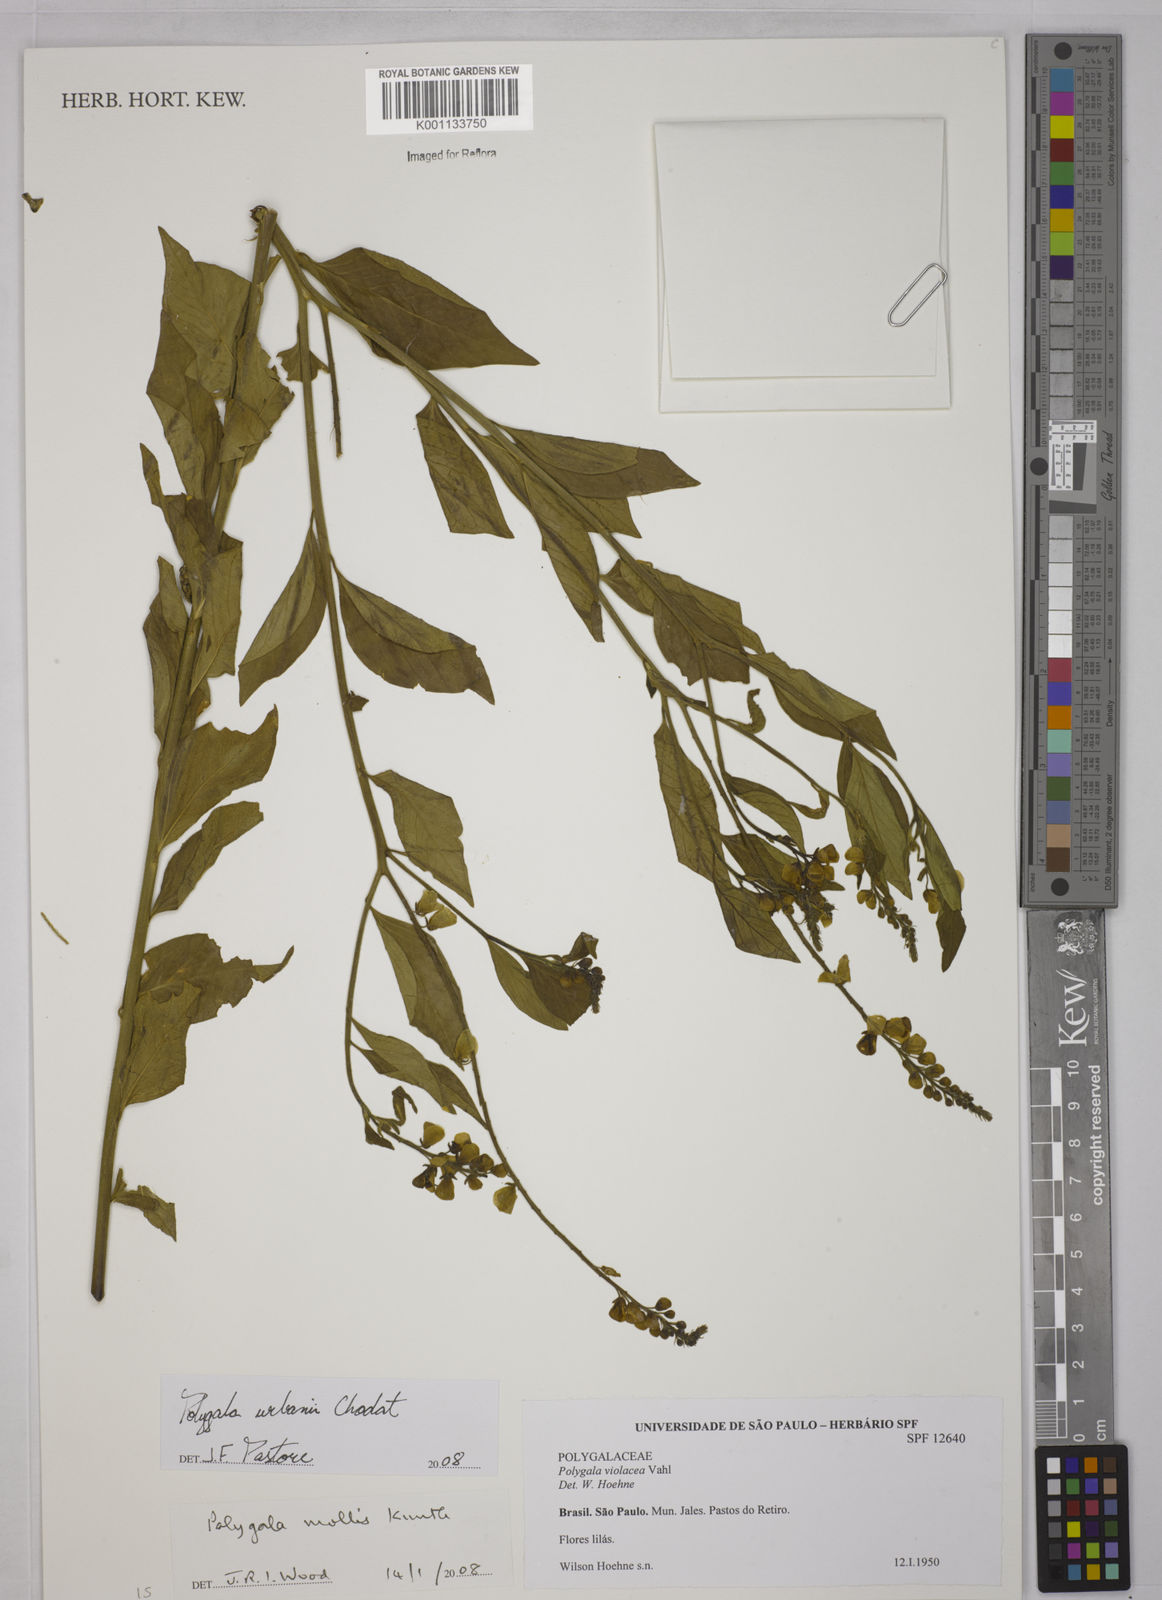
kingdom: Plantae
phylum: Tracheophyta
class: Magnoliopsida
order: Fabales
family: Polygalaceae
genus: Asemeia
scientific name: Asemeia monninoides
